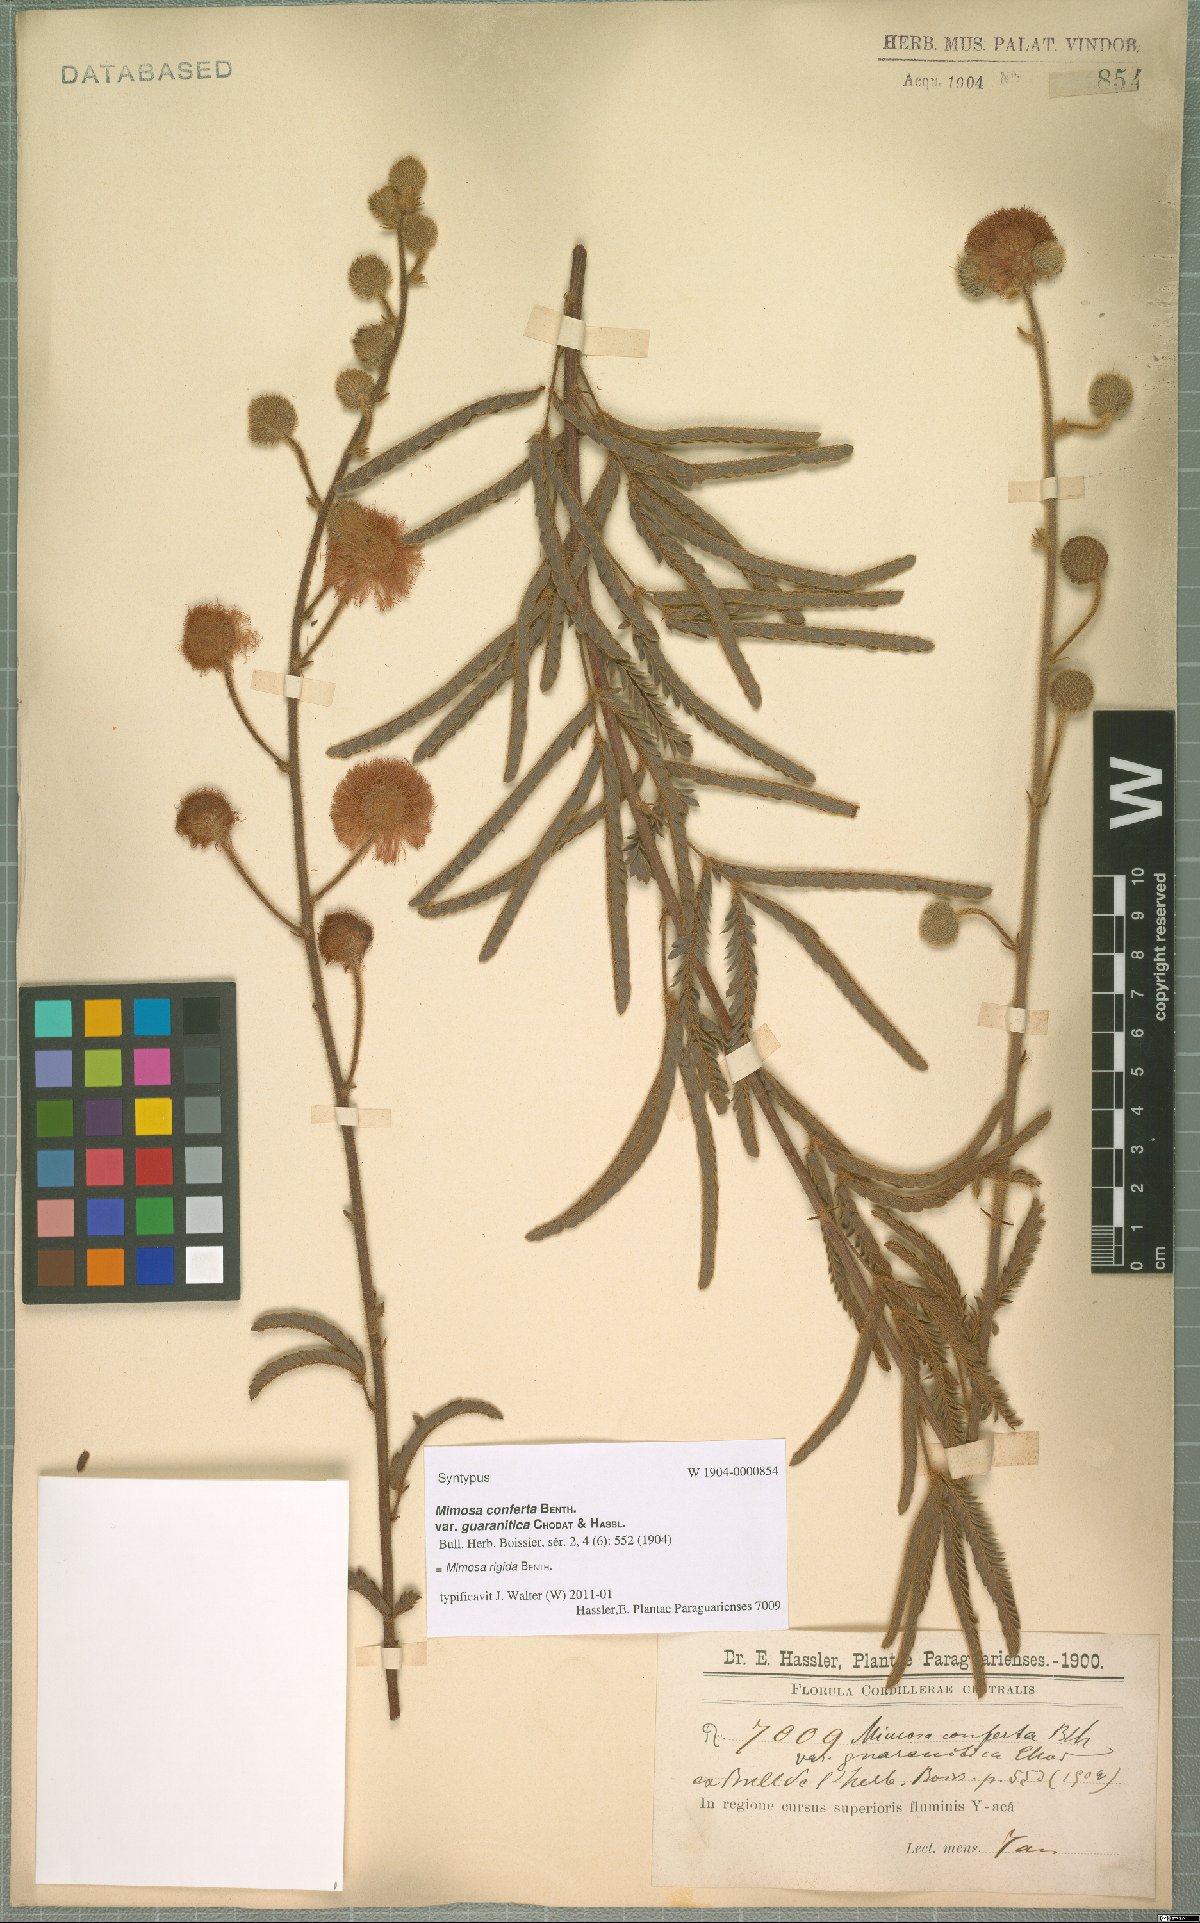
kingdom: Plantae
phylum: Tracheophyta
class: Magnoliopsida
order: Fabales
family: Fabaceae
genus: Mimosa
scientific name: Mimosa dolens
